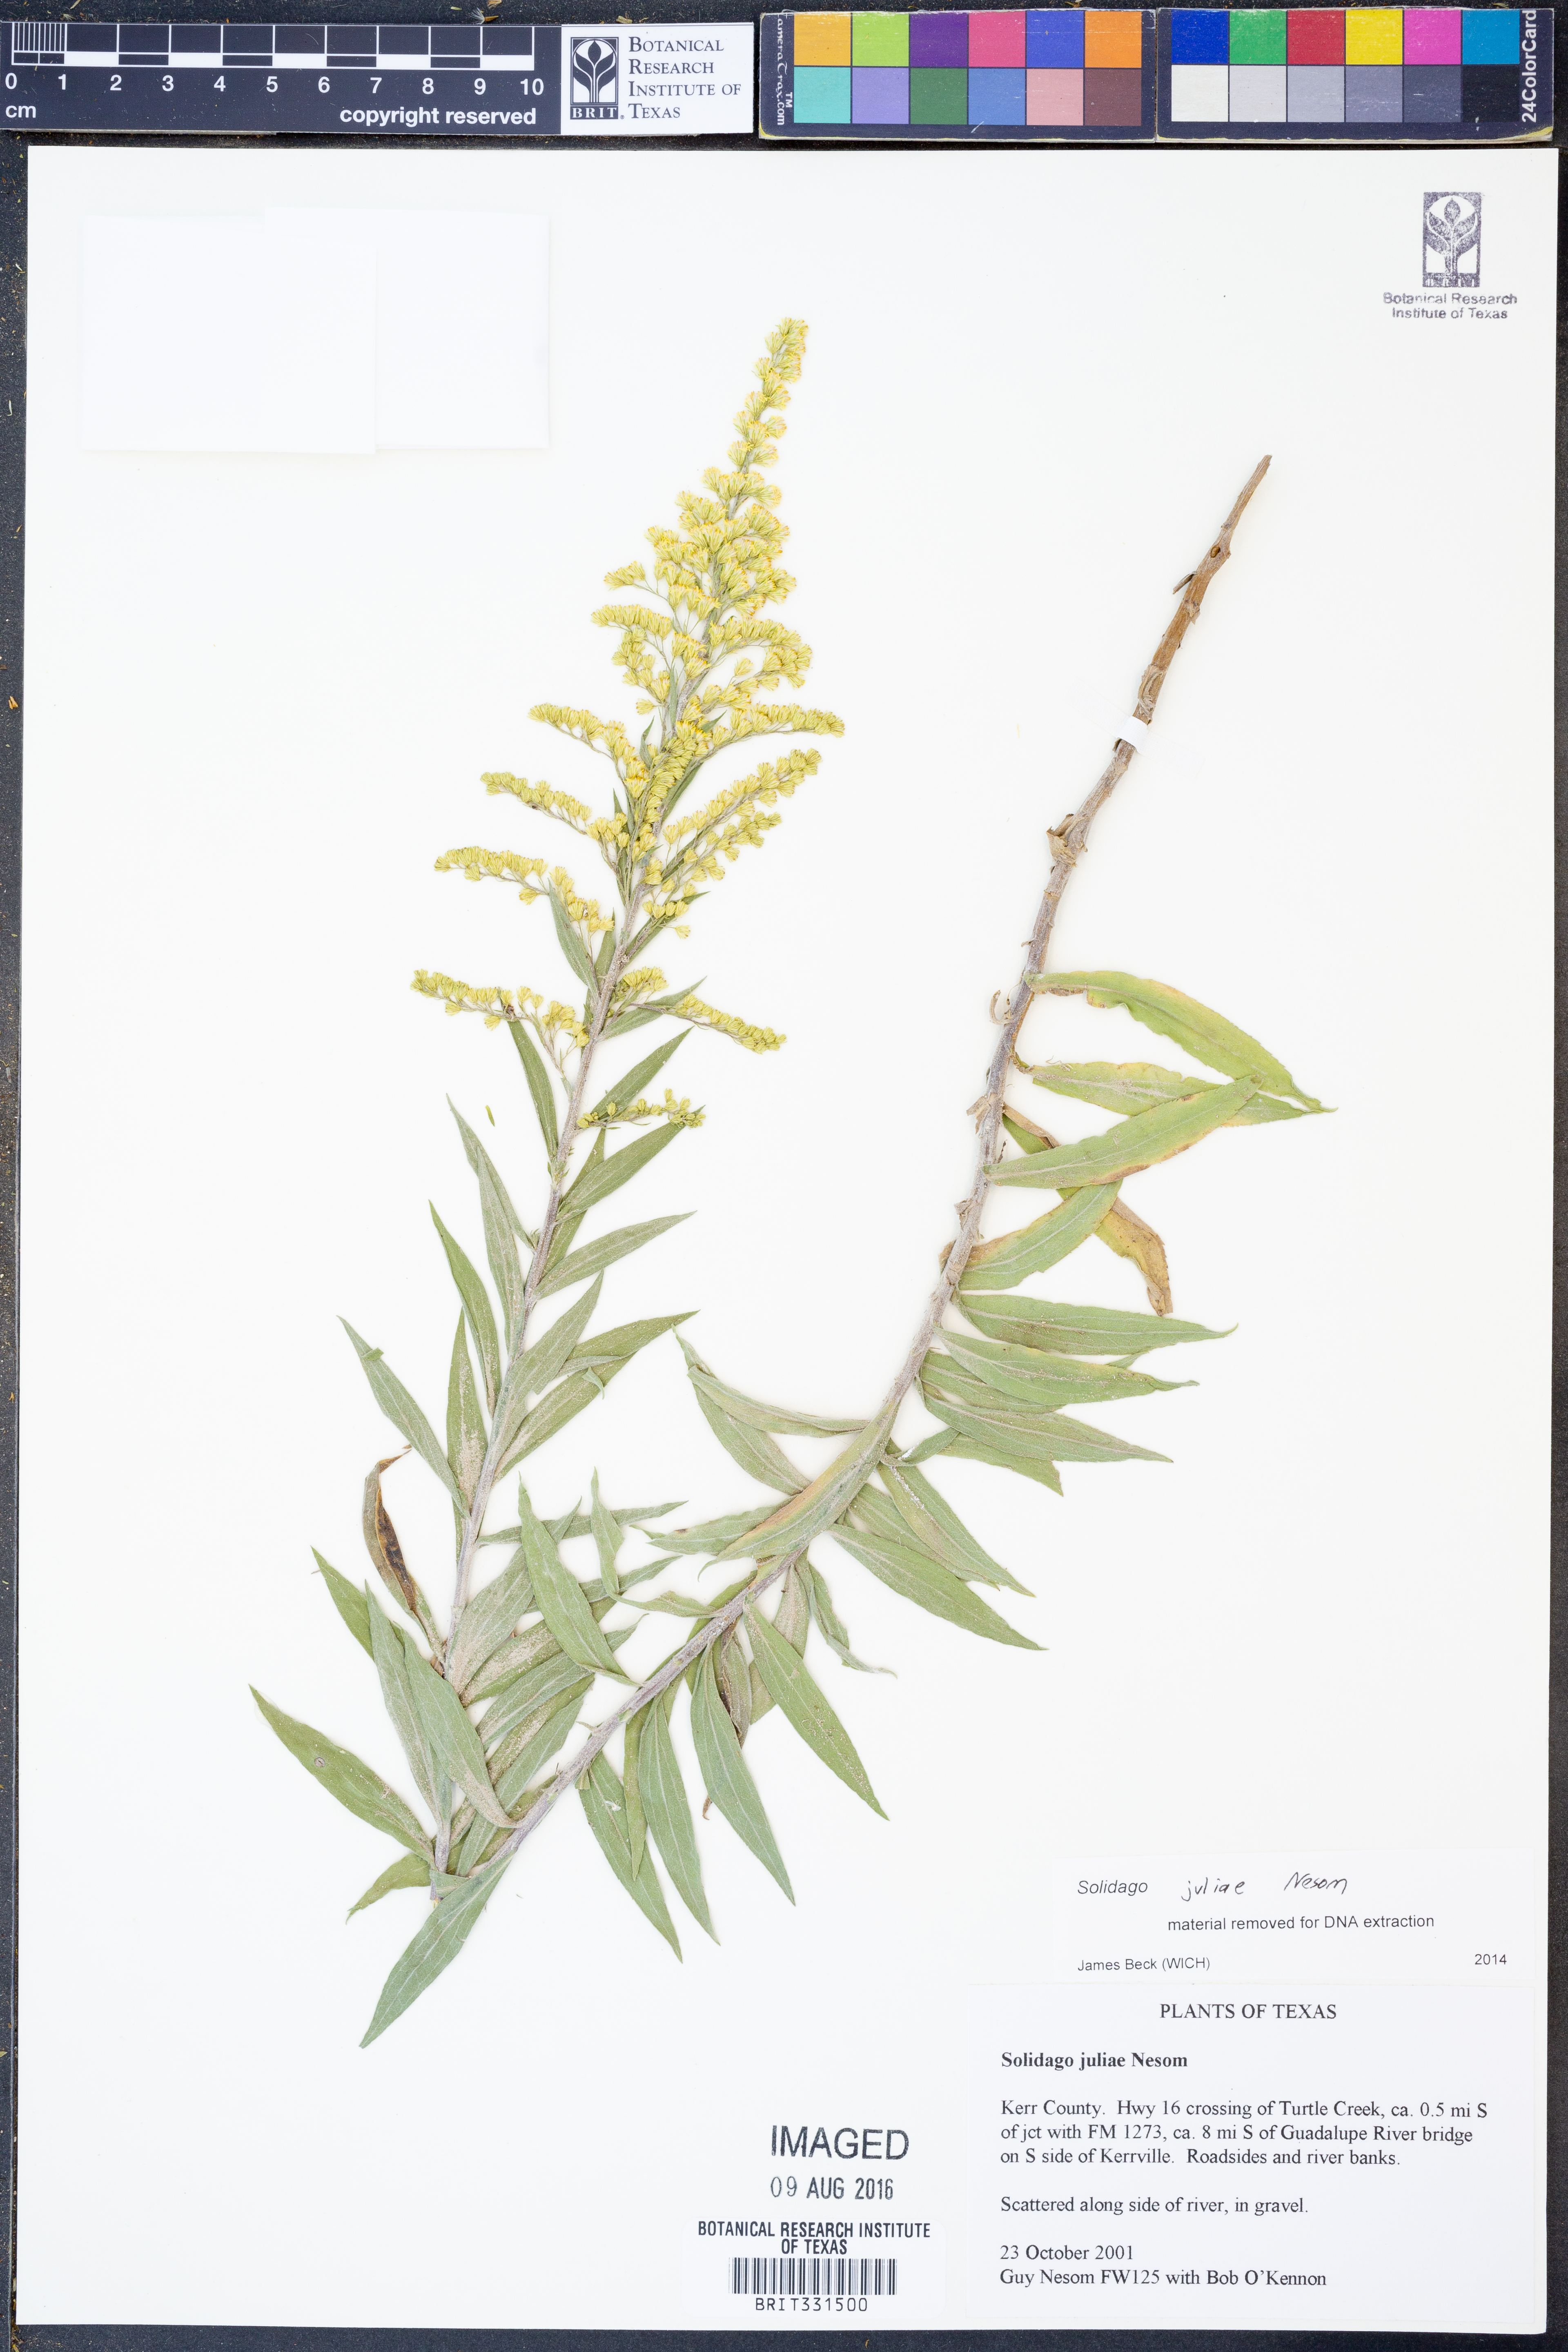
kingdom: Plantae
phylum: Tracheophyta
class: Magnoliopsida
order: Asterales
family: Asteraceae
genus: Solidago
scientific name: Solidago juliae
